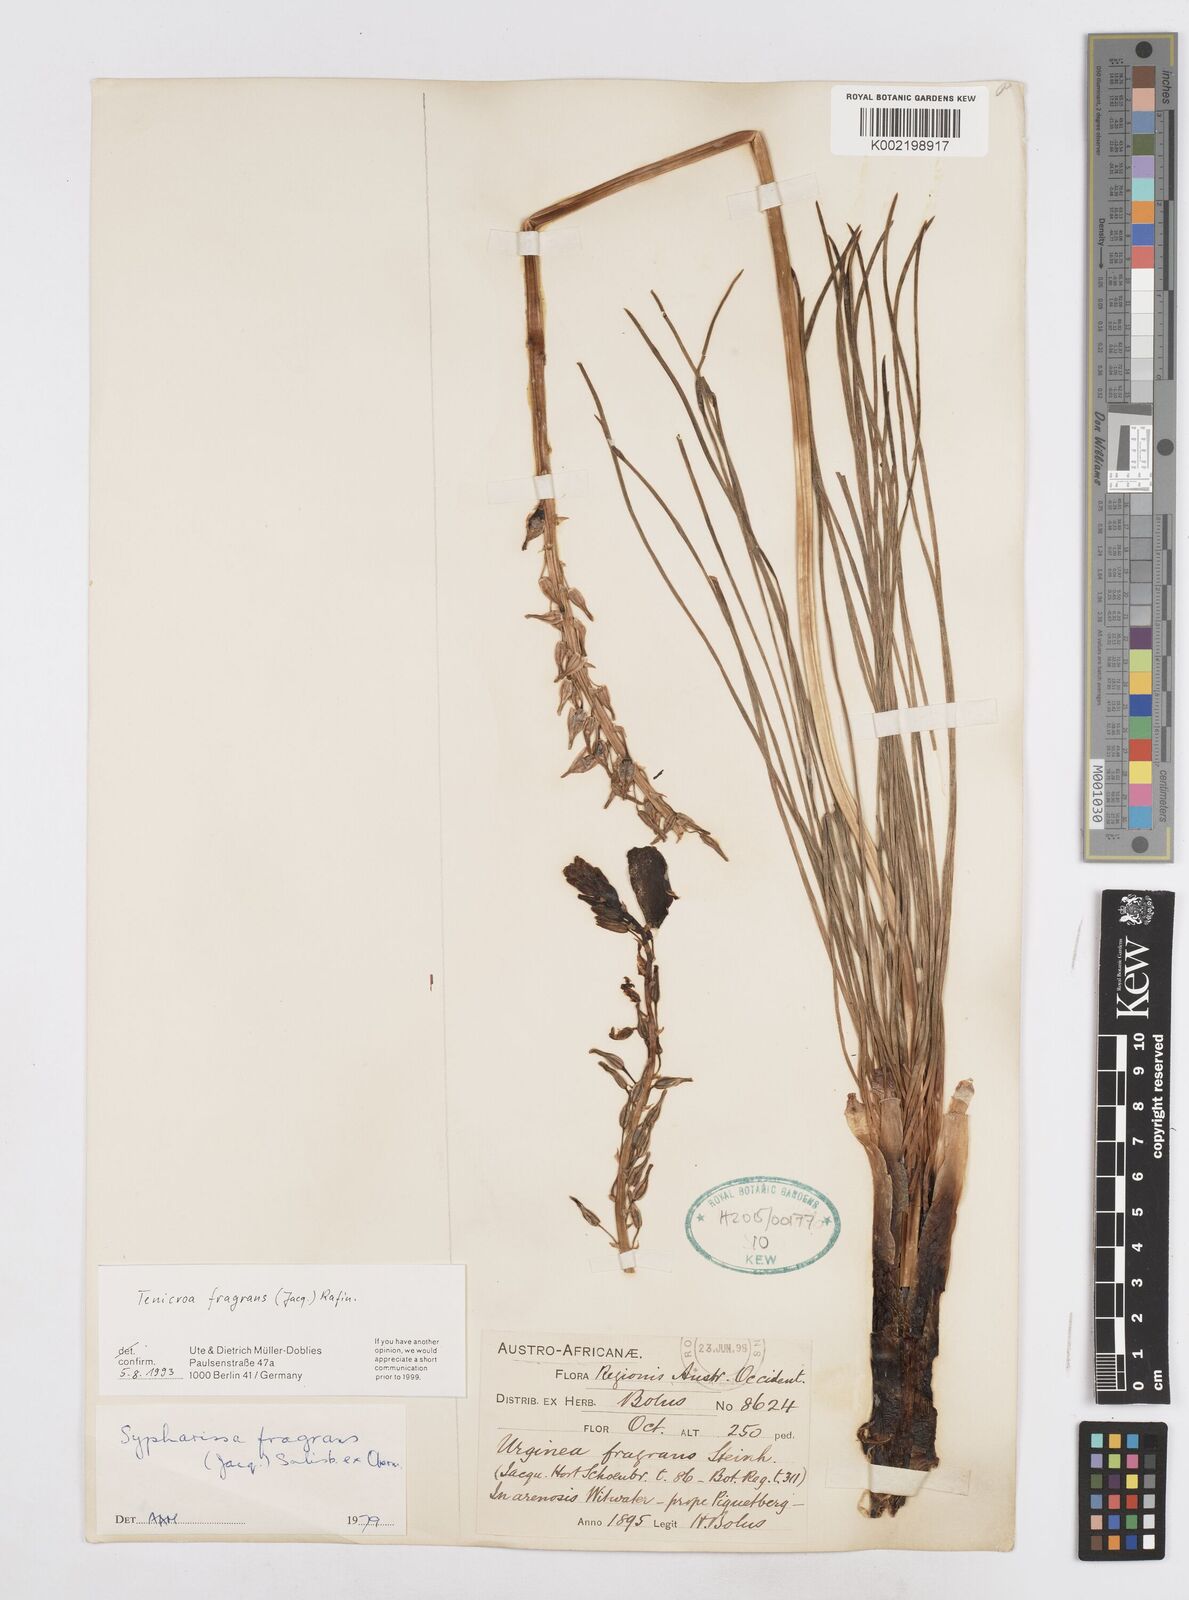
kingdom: Plantae
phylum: Tracheophyta
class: Liliopsida
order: Asparagales
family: Asparagaceae
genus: Drimia
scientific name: Drimia elata
